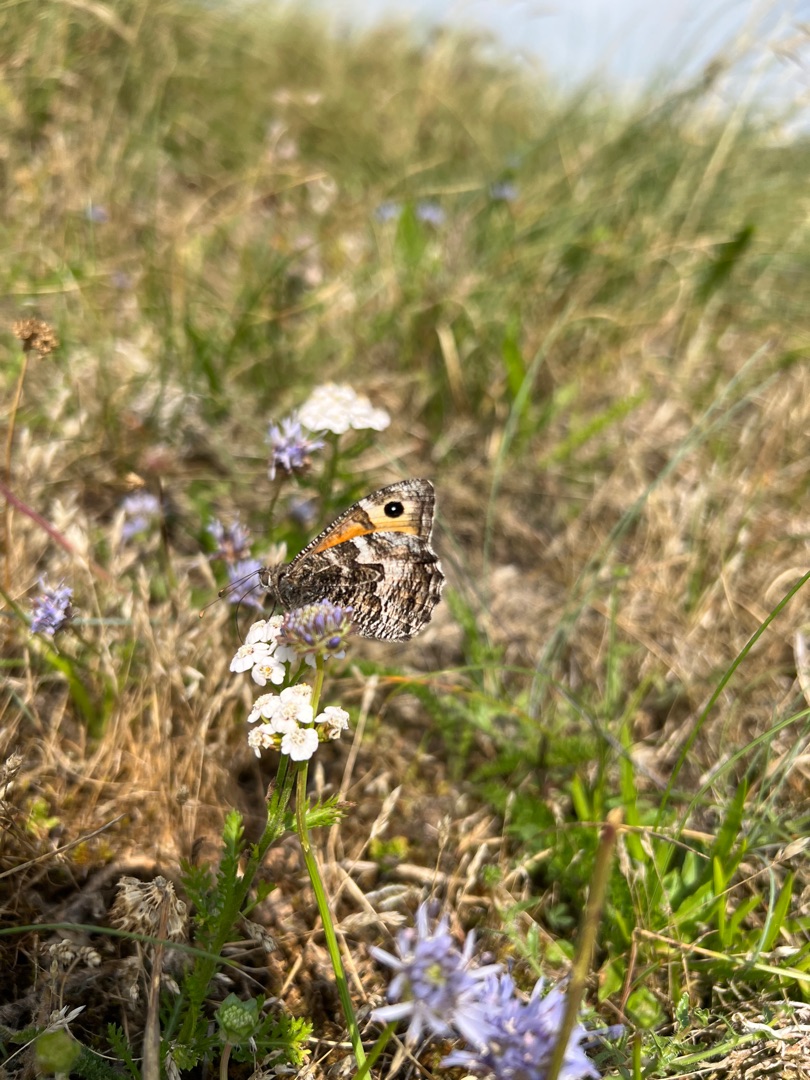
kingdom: Animalia
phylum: Arthropoda
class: Insecta
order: Lepidoptera
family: Nymphalidae
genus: Hipparchia
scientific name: Hipparchia semele
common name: Sandrandøje
